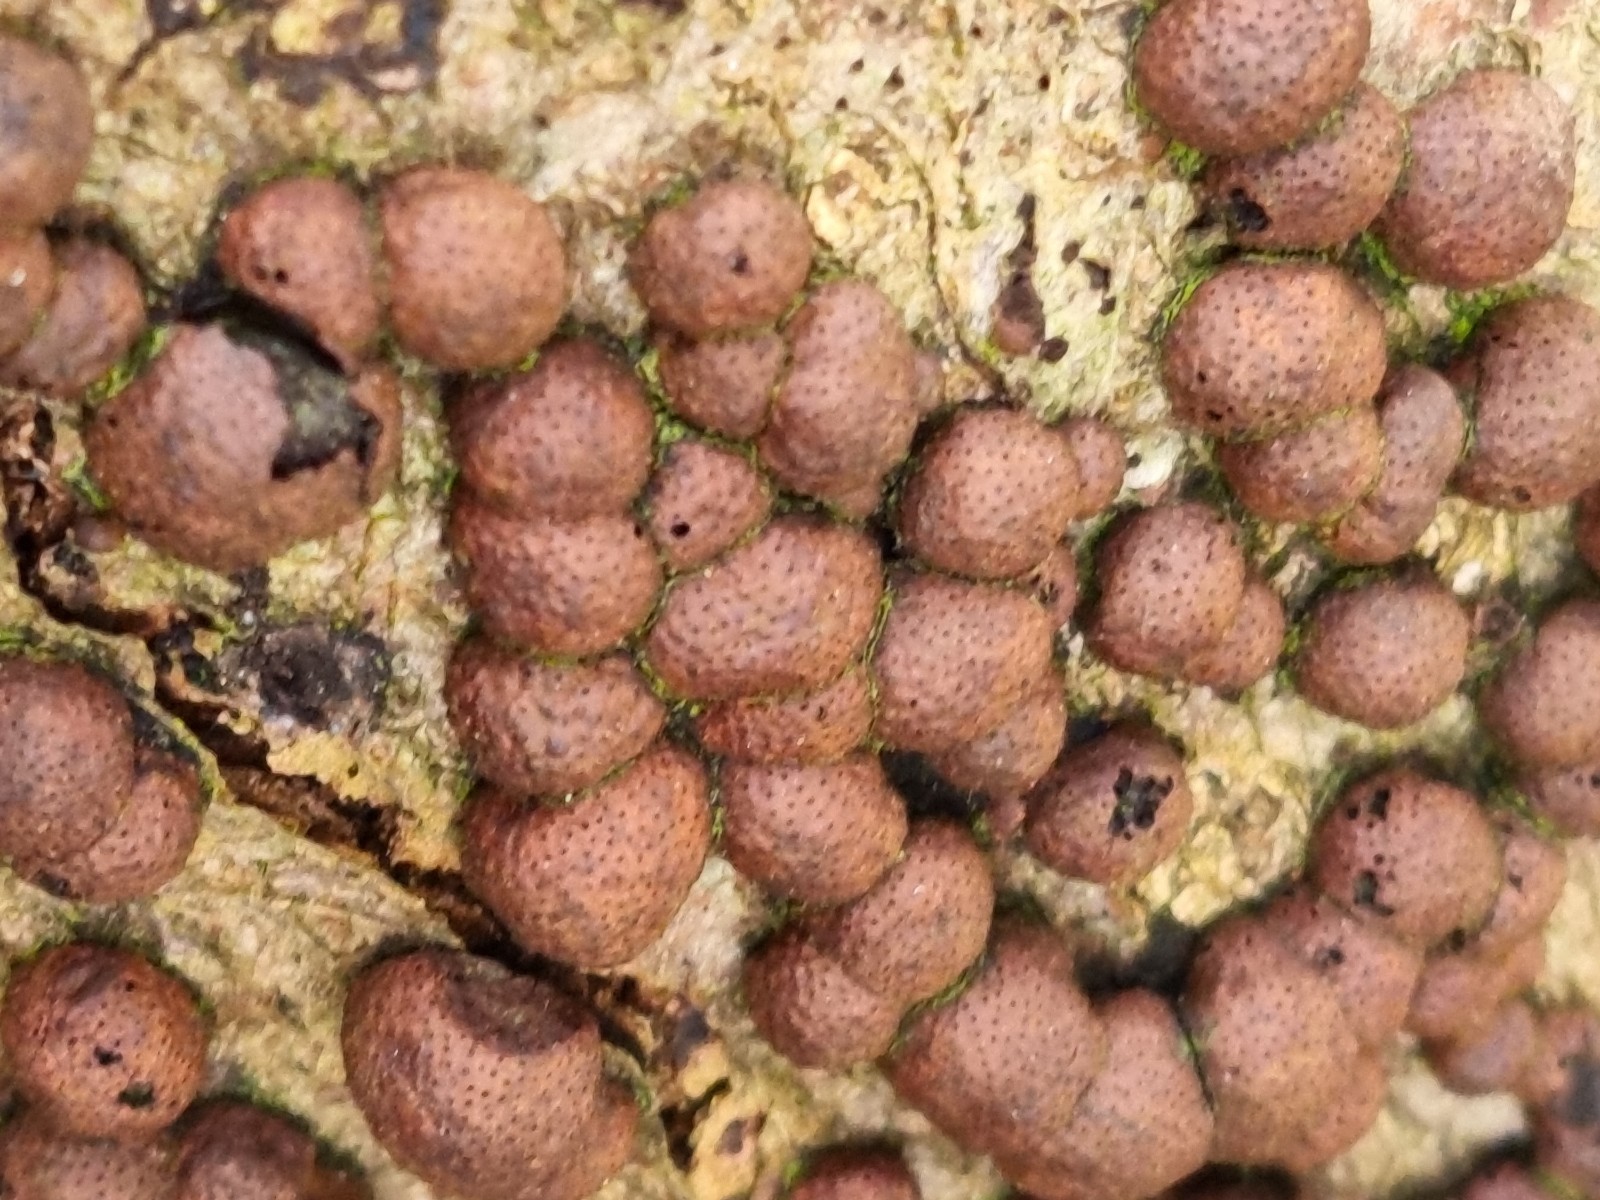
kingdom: Fungi
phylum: Ascomycota
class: Sordariomycetes
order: Xylariales
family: Hypoxylaceae
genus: Hypoxylon
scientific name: Hypoxylon fragiforme
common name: kuljordbær
